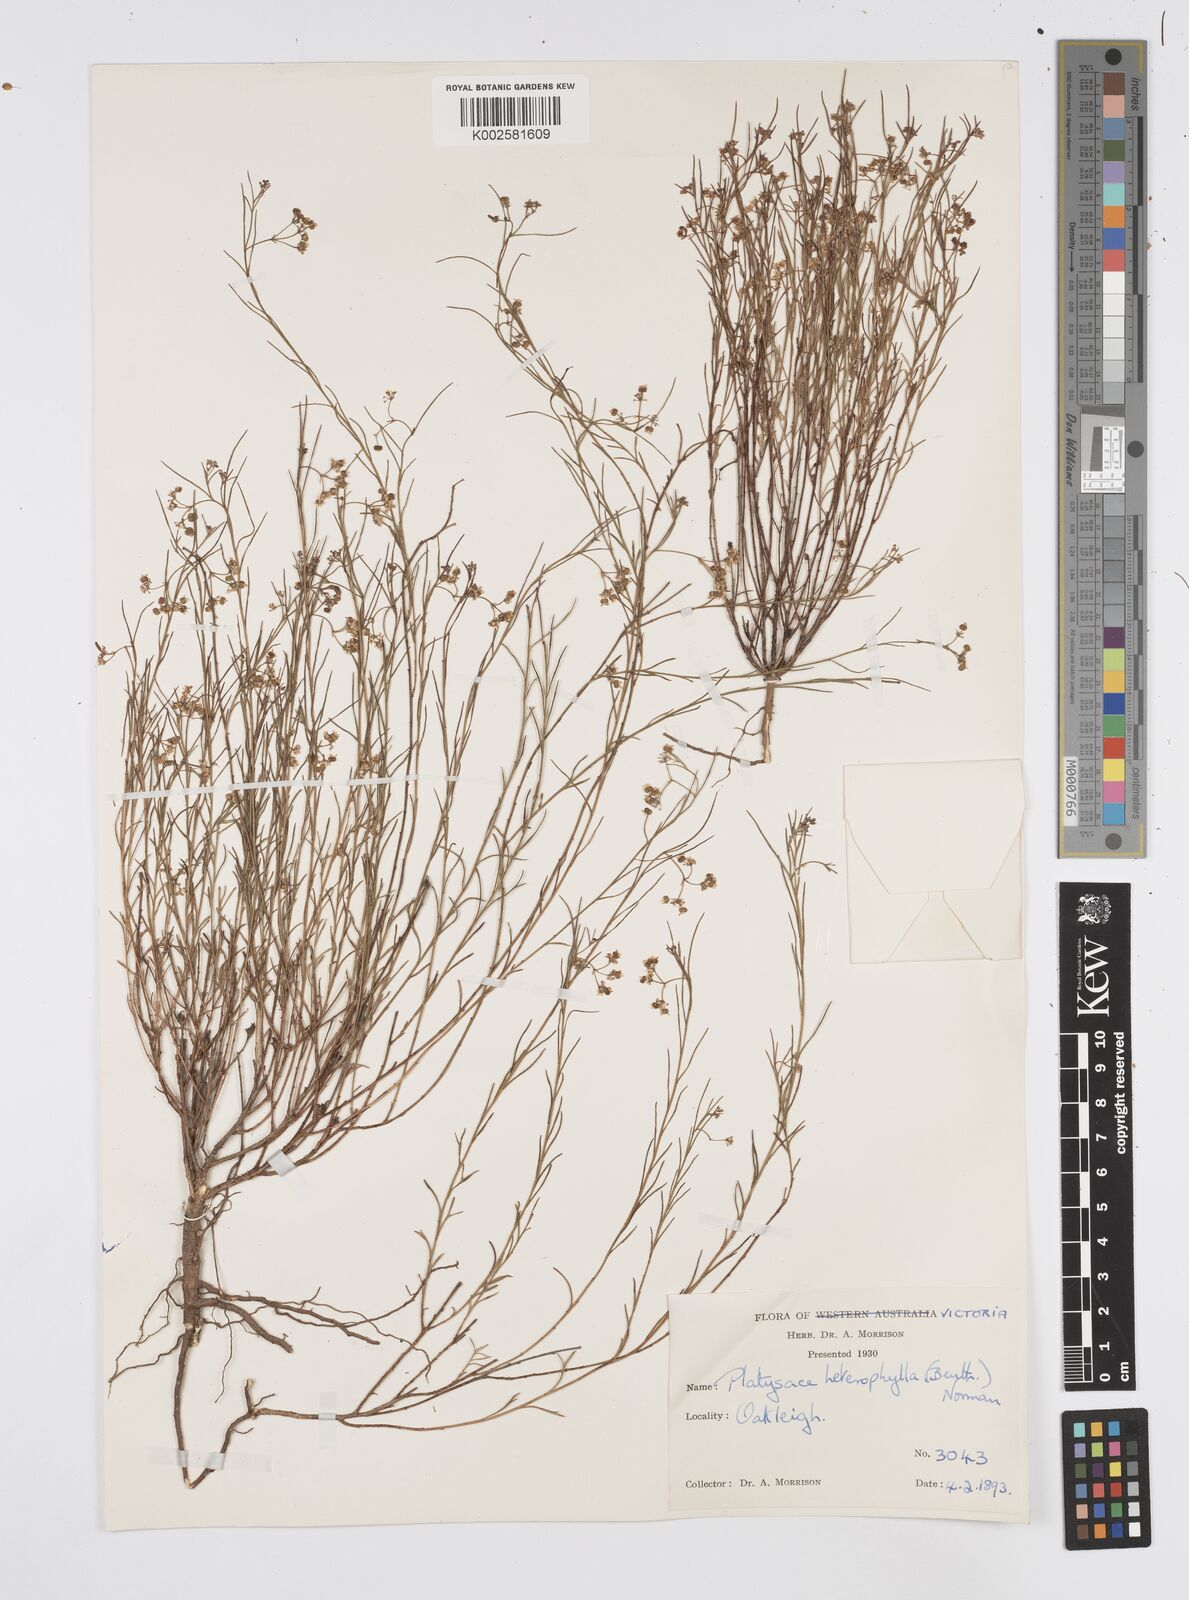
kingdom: Plantae
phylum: Tracheophyta
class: Magnoliopsida
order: Apiales
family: Apiaceae
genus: Platysace
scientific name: Platysace heterophylla
